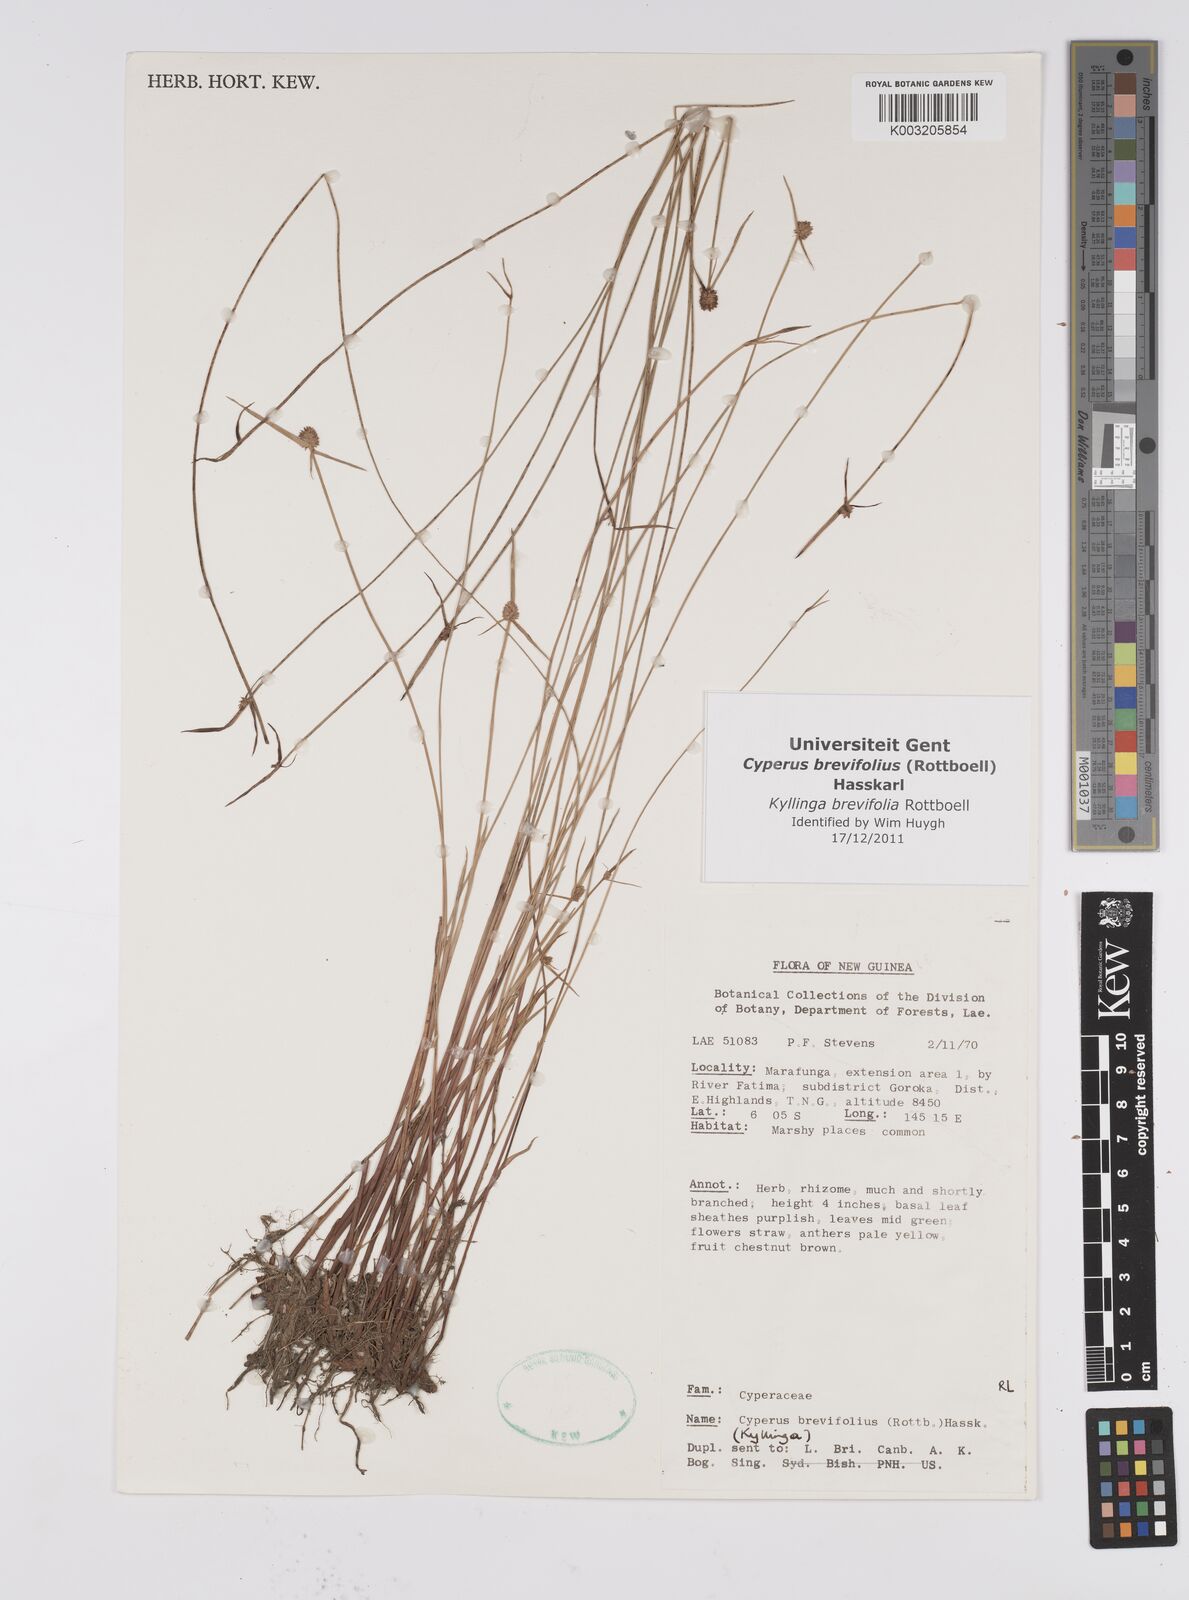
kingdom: Plantae
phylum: Tracheophyta
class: Liliopsida
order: Poales
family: Cyperaceae
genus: Cyperus
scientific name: Cyperus brevifolius
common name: Globe kyllinga
